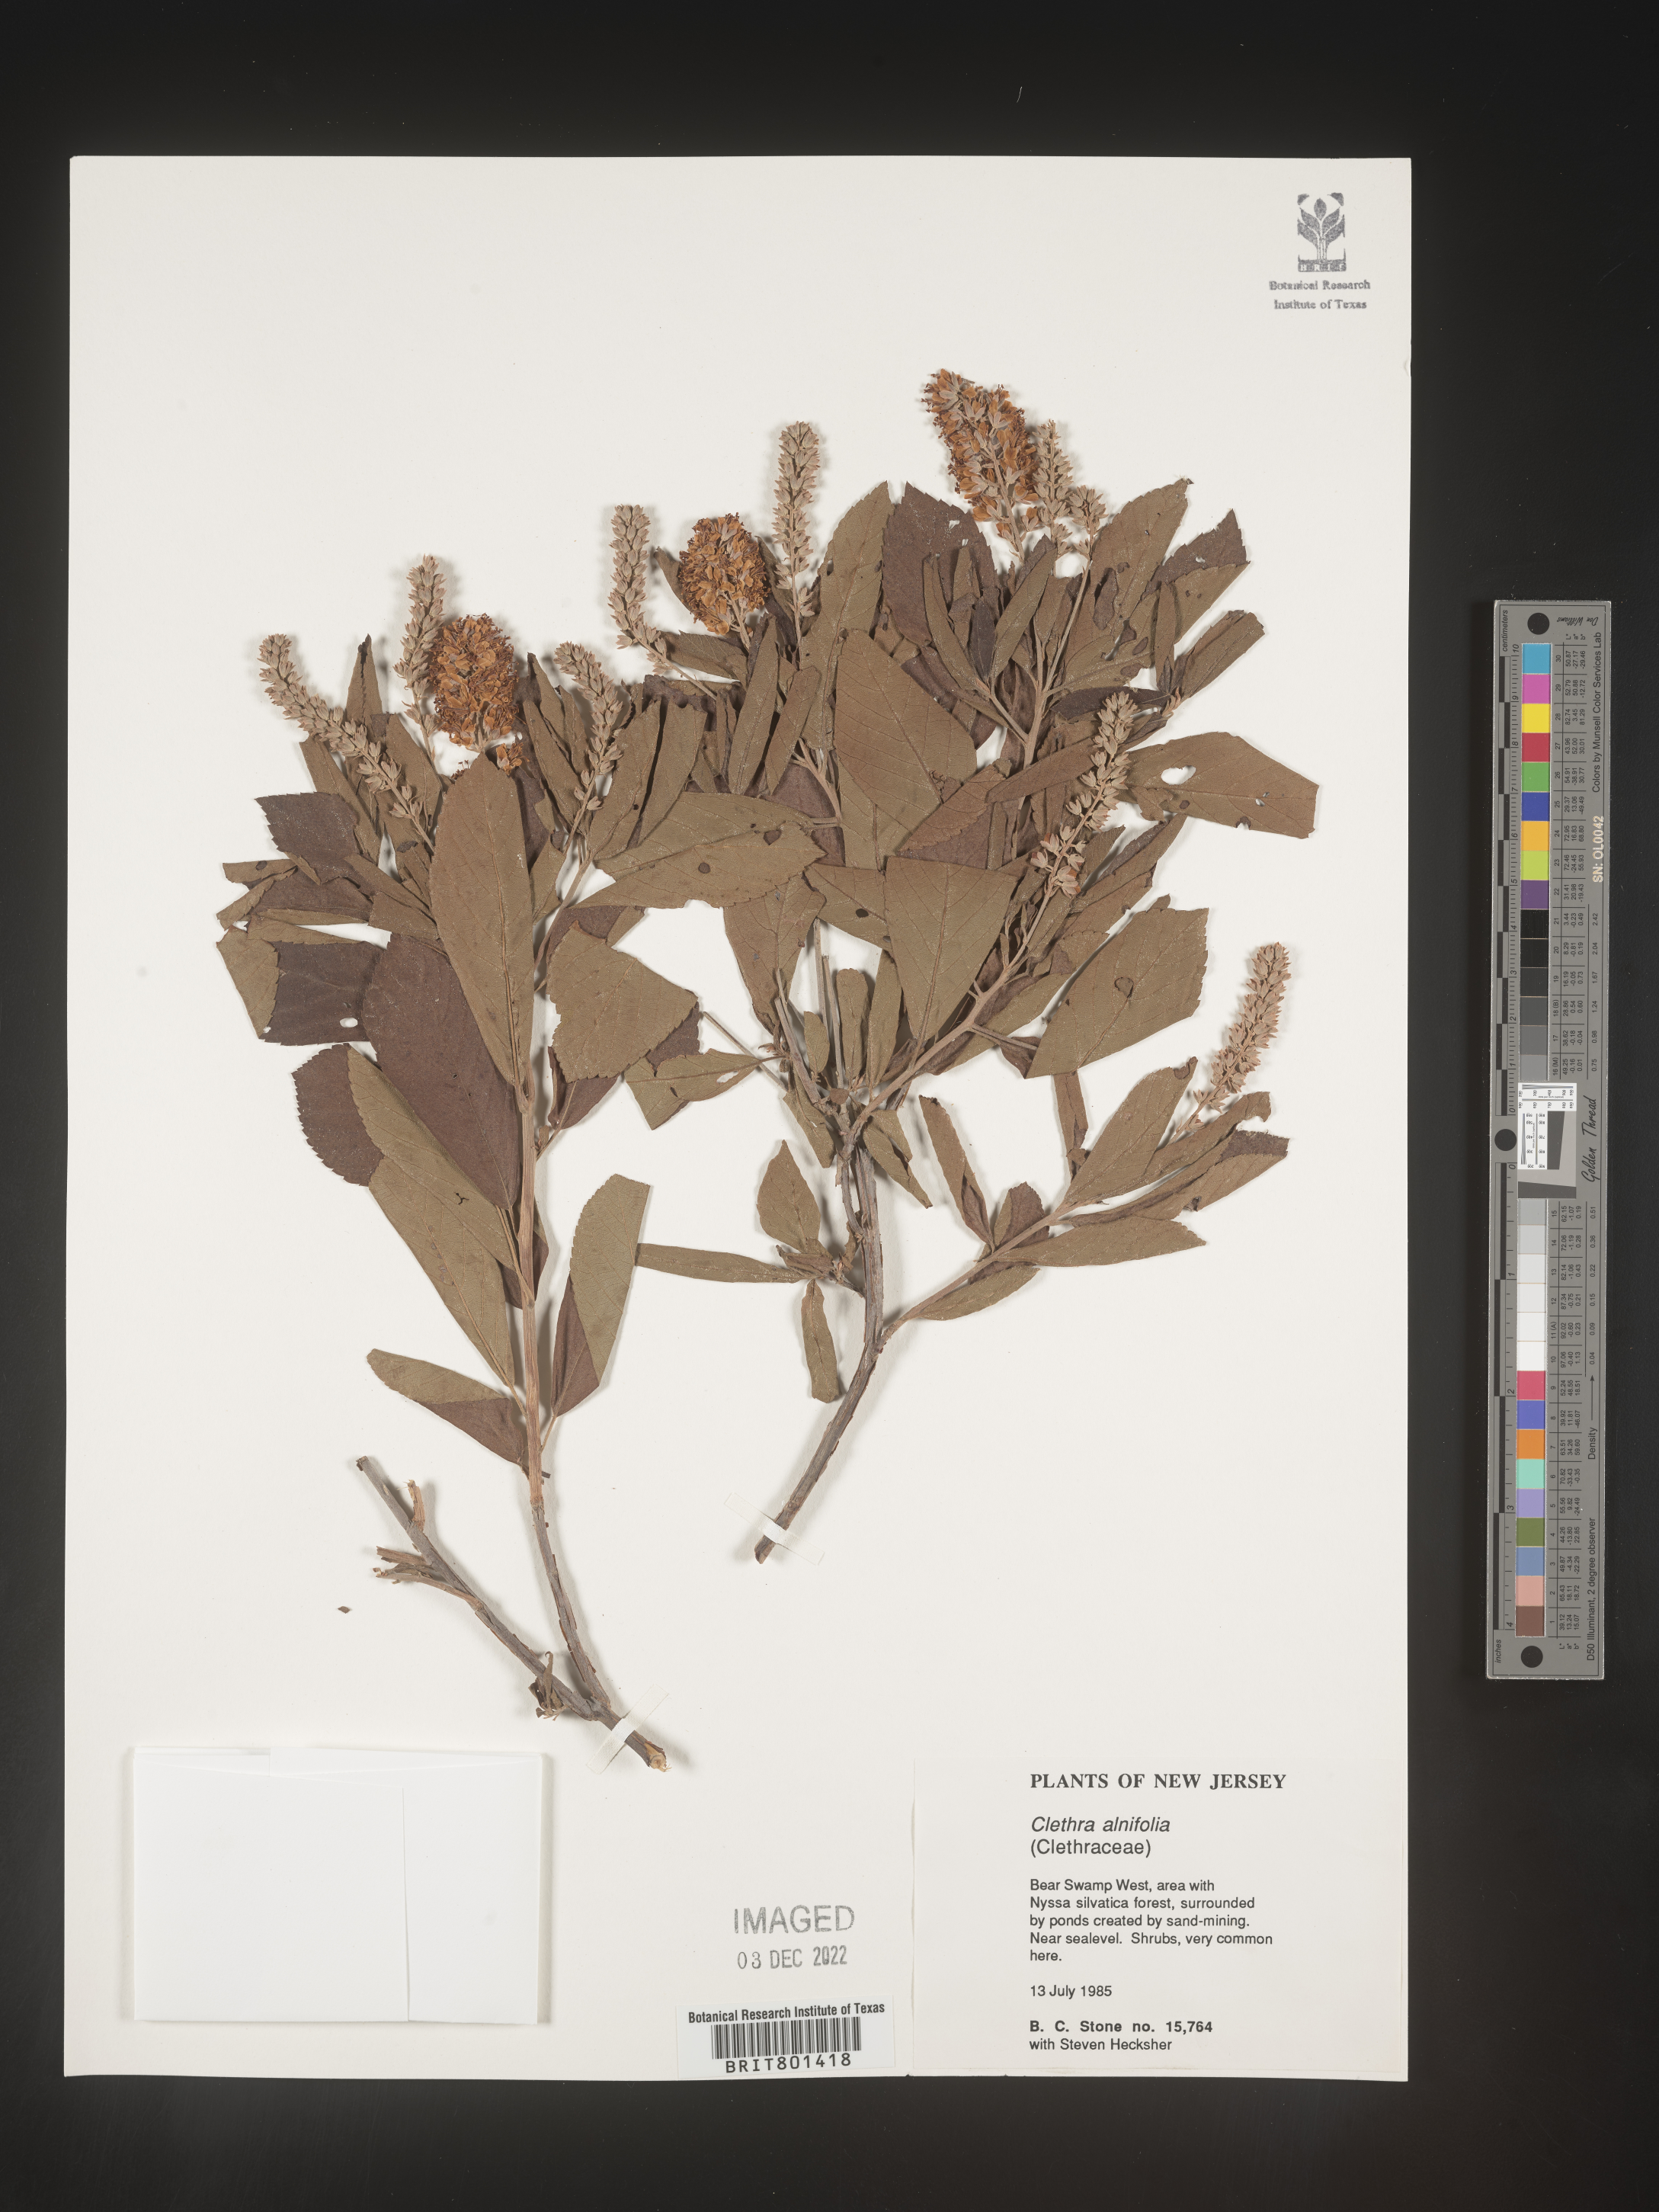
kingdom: Plantae
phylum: Tracheophyta
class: Magnoliopsida
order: Ericales
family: Clethraceae
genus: Clethra
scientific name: Clethra alnifolia
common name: Sweet pepperbush
